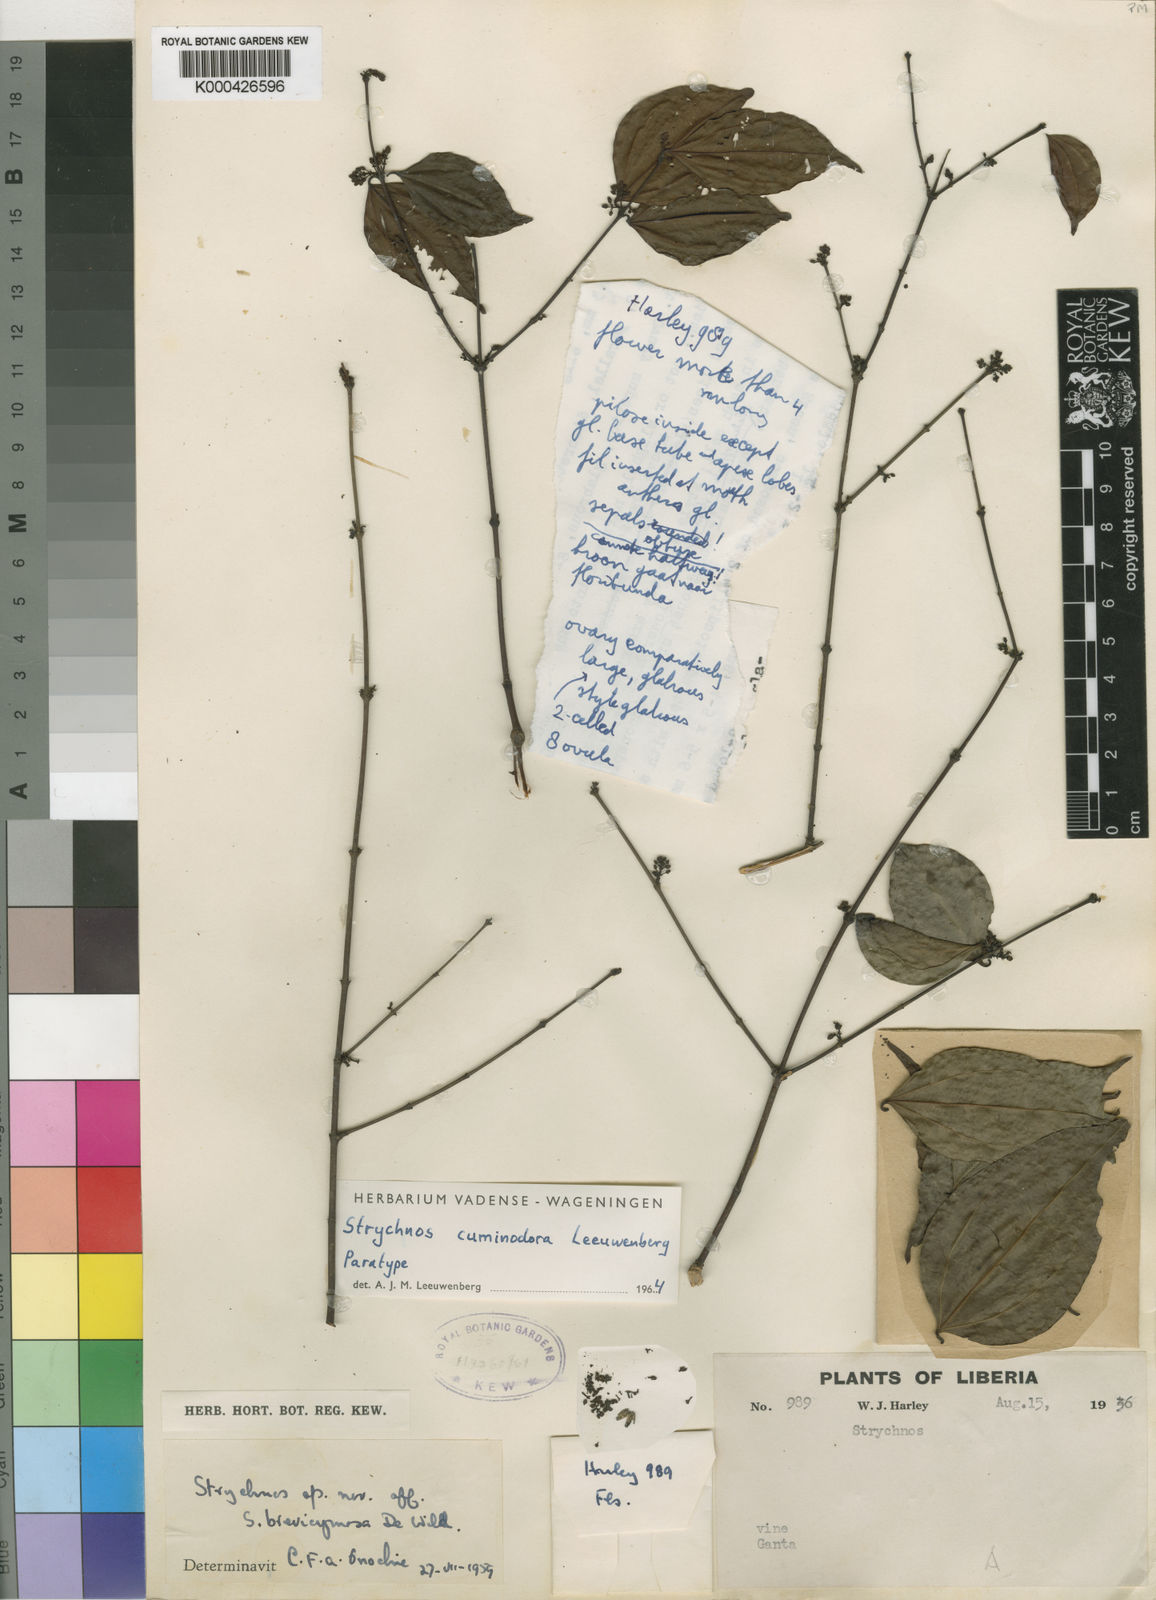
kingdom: Plantae
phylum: Tracheophyta
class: Magnoliopsida
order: Gentianales
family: Loganiaceae
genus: Strychnos
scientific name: Strychnos cuminodora
